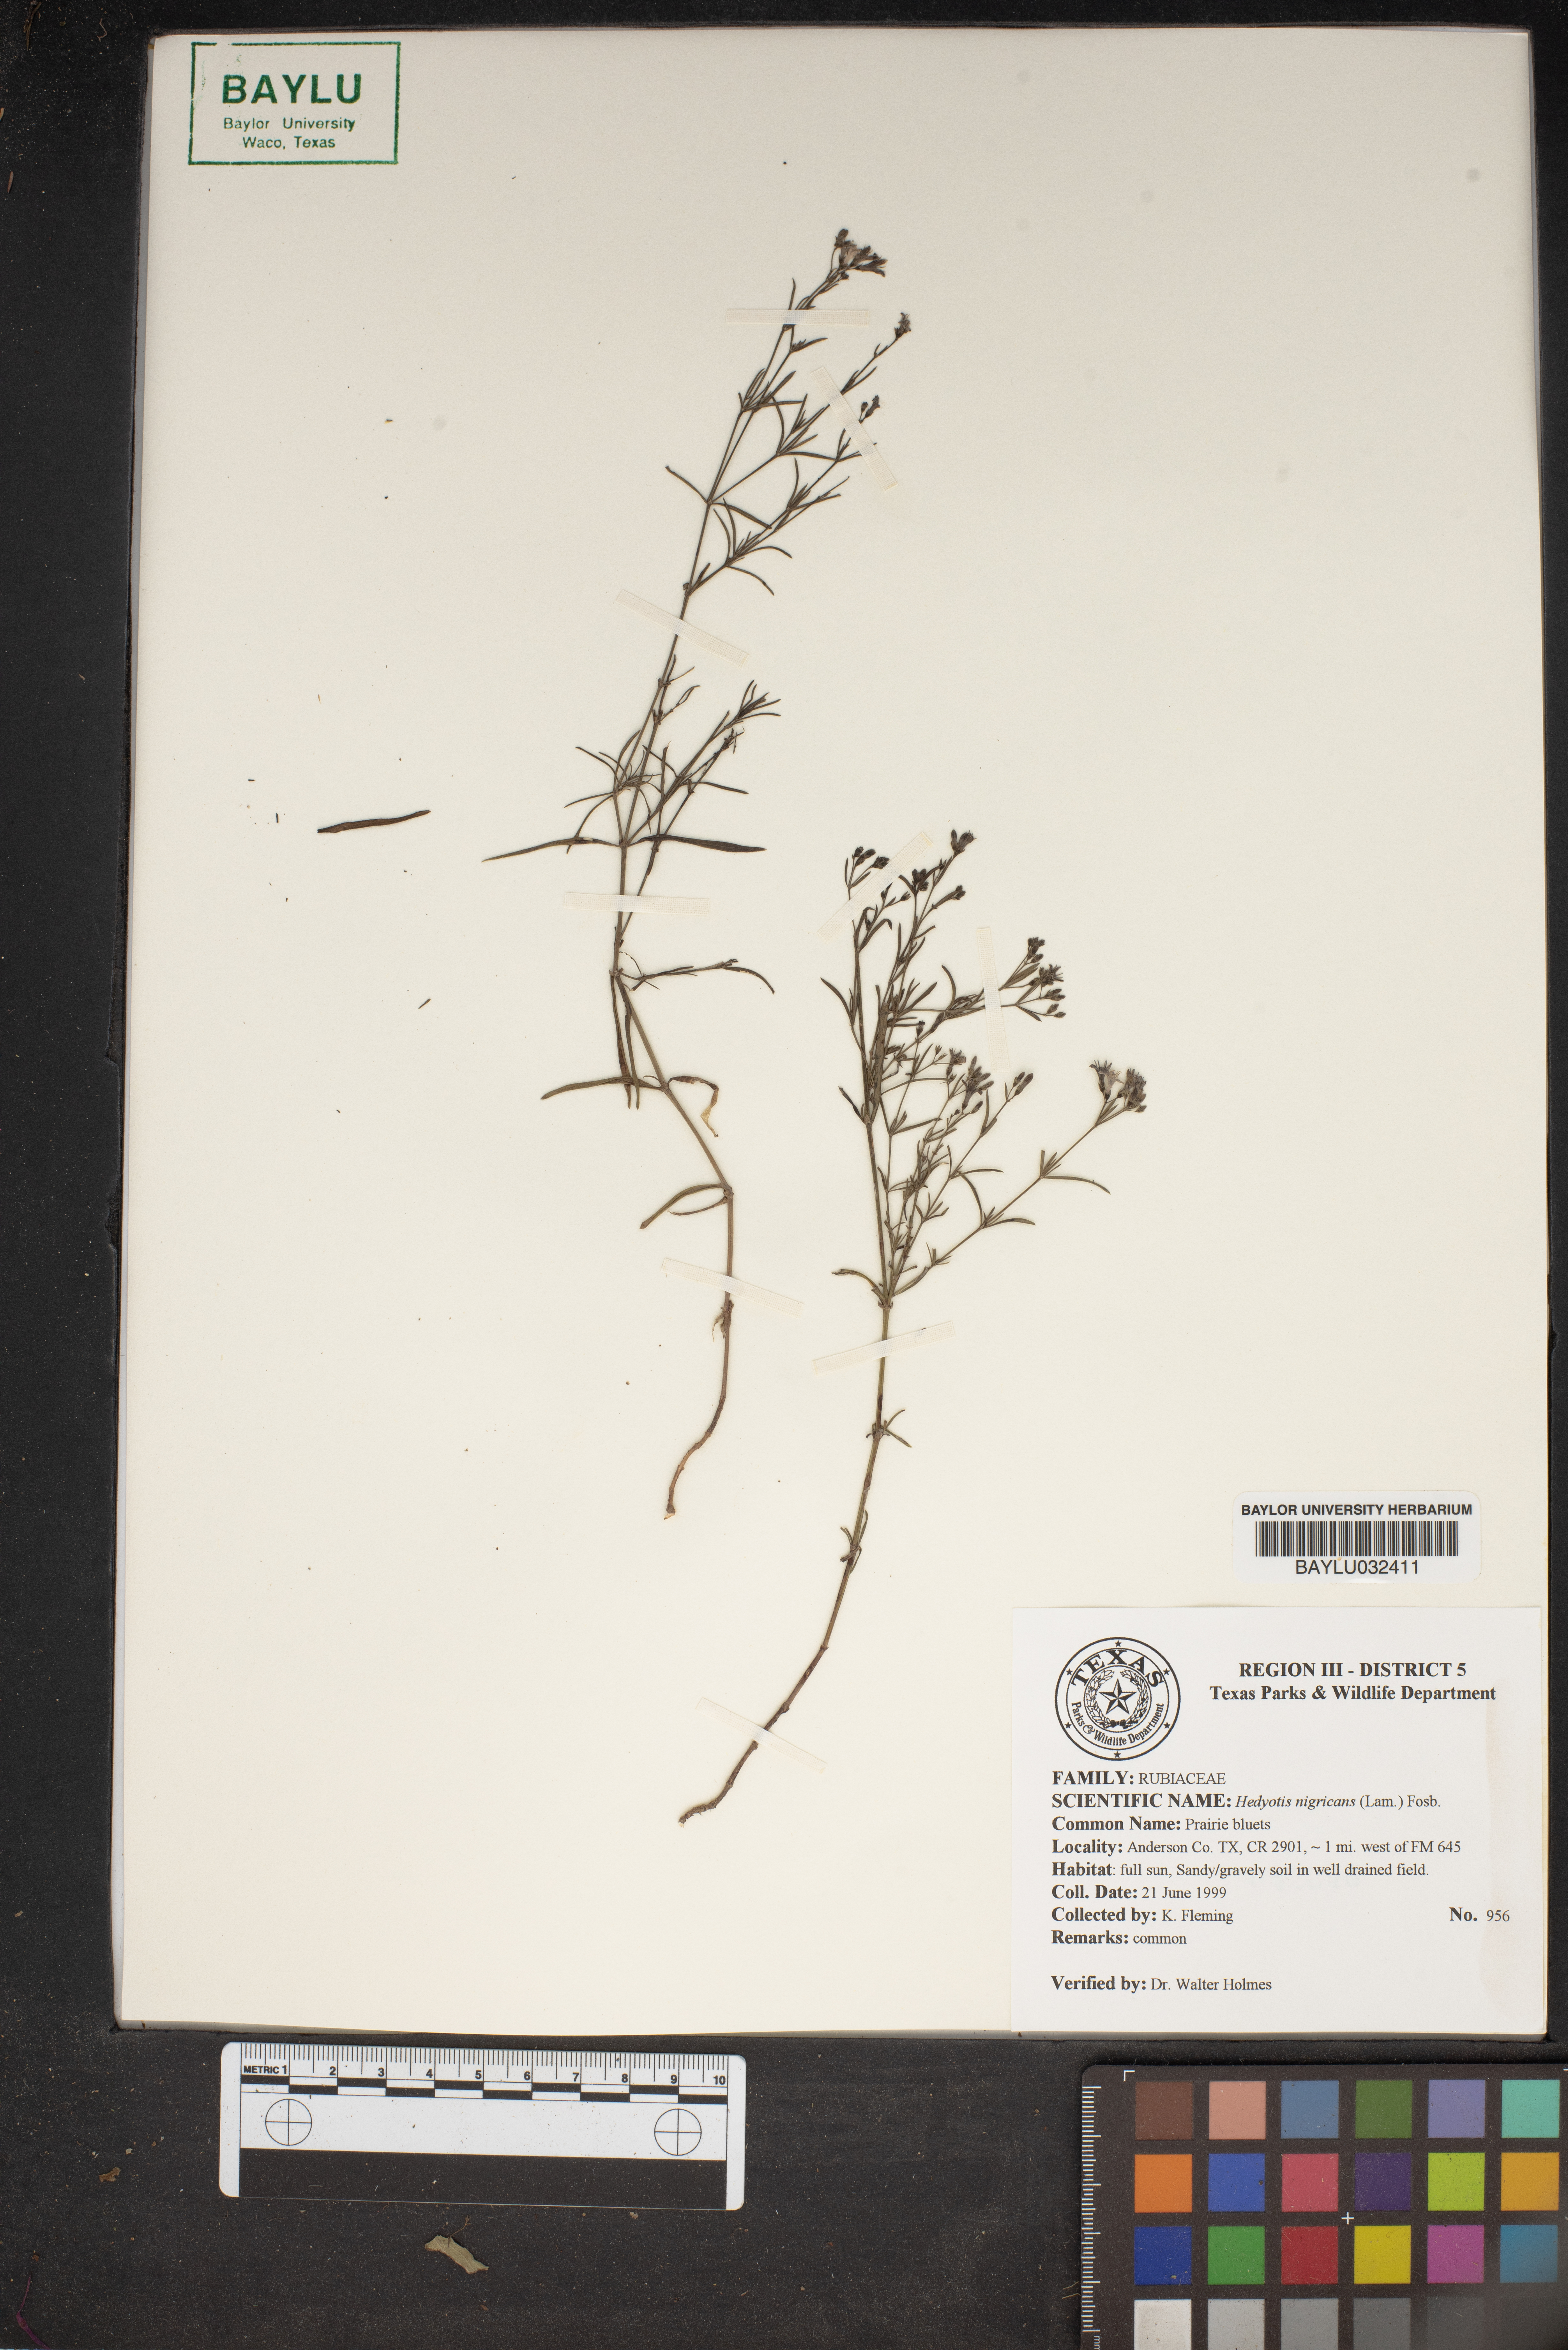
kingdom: Plantae
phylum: Tracheophyta
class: Magnoliopsida
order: Gentianales
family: Rubiaceae
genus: Stenaria
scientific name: Stenaria nigricans
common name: Diamondflowers
